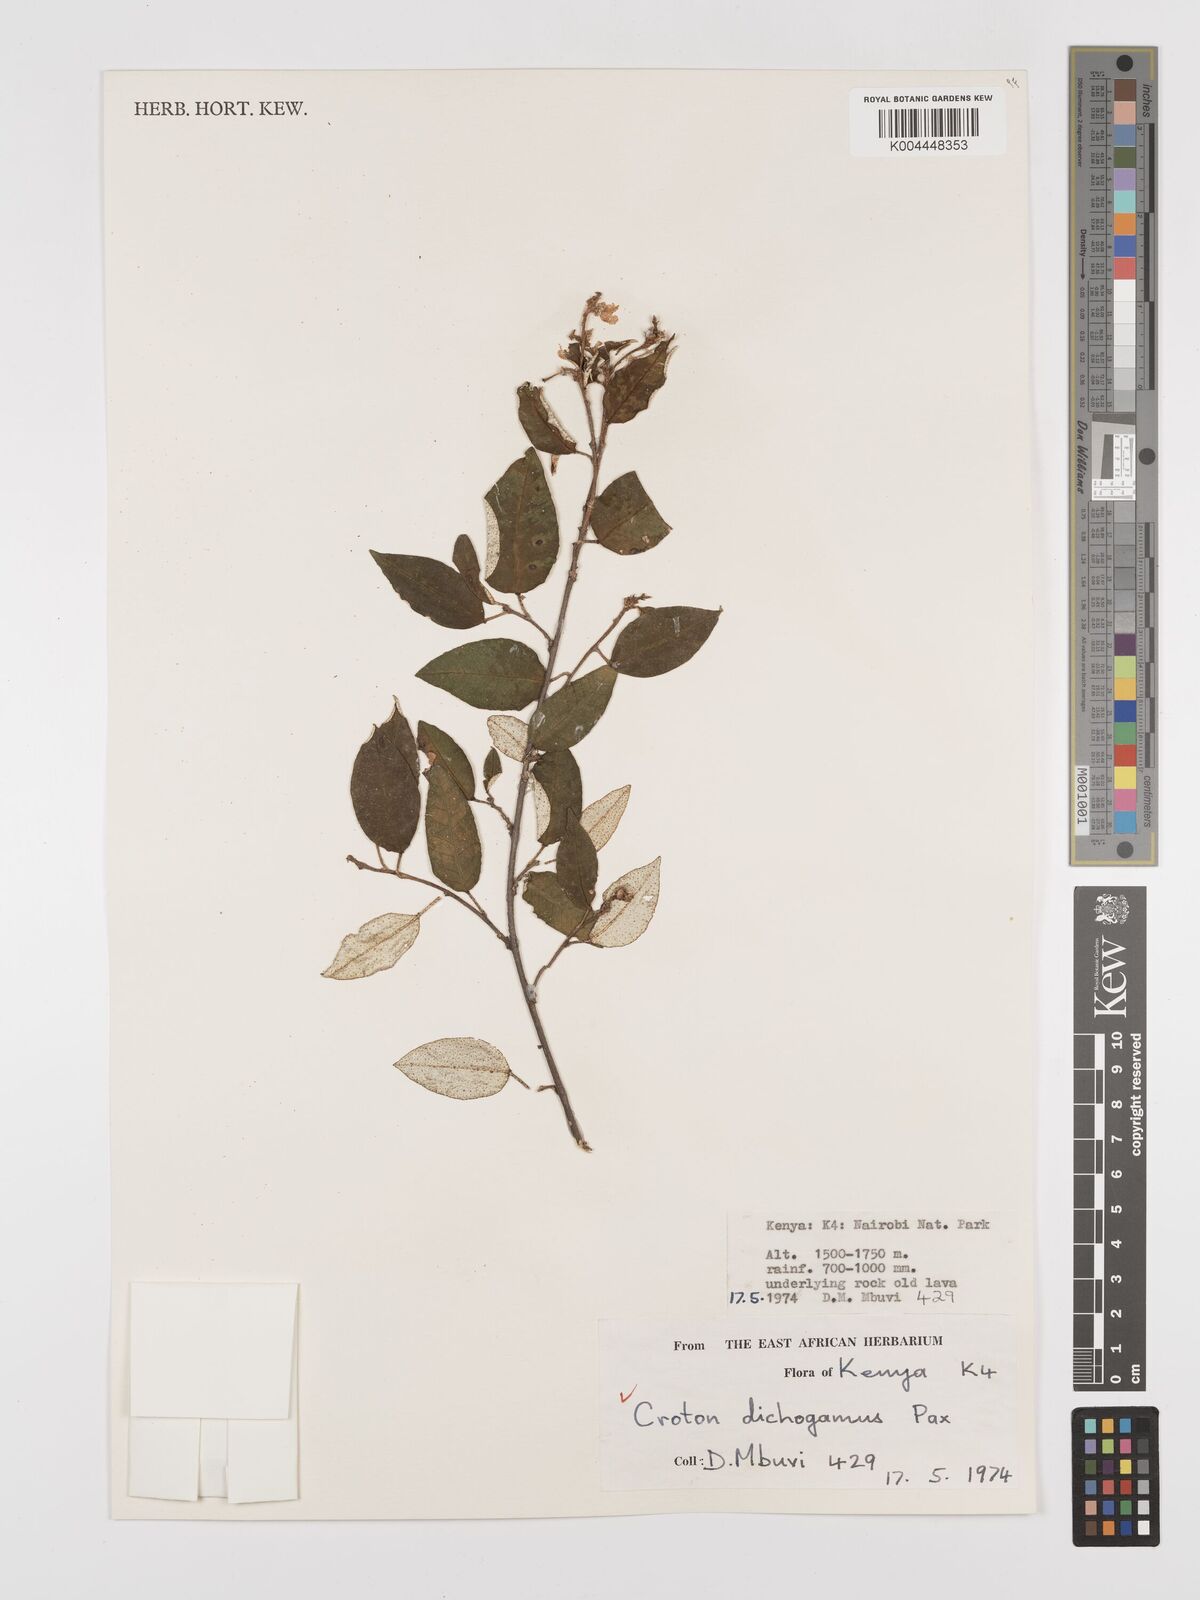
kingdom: Plantae
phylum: Tracheophyta
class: Magnoliopsida
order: Malpighiales
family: Euphorbiaceae
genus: Croton
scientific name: Croton dichogamus
